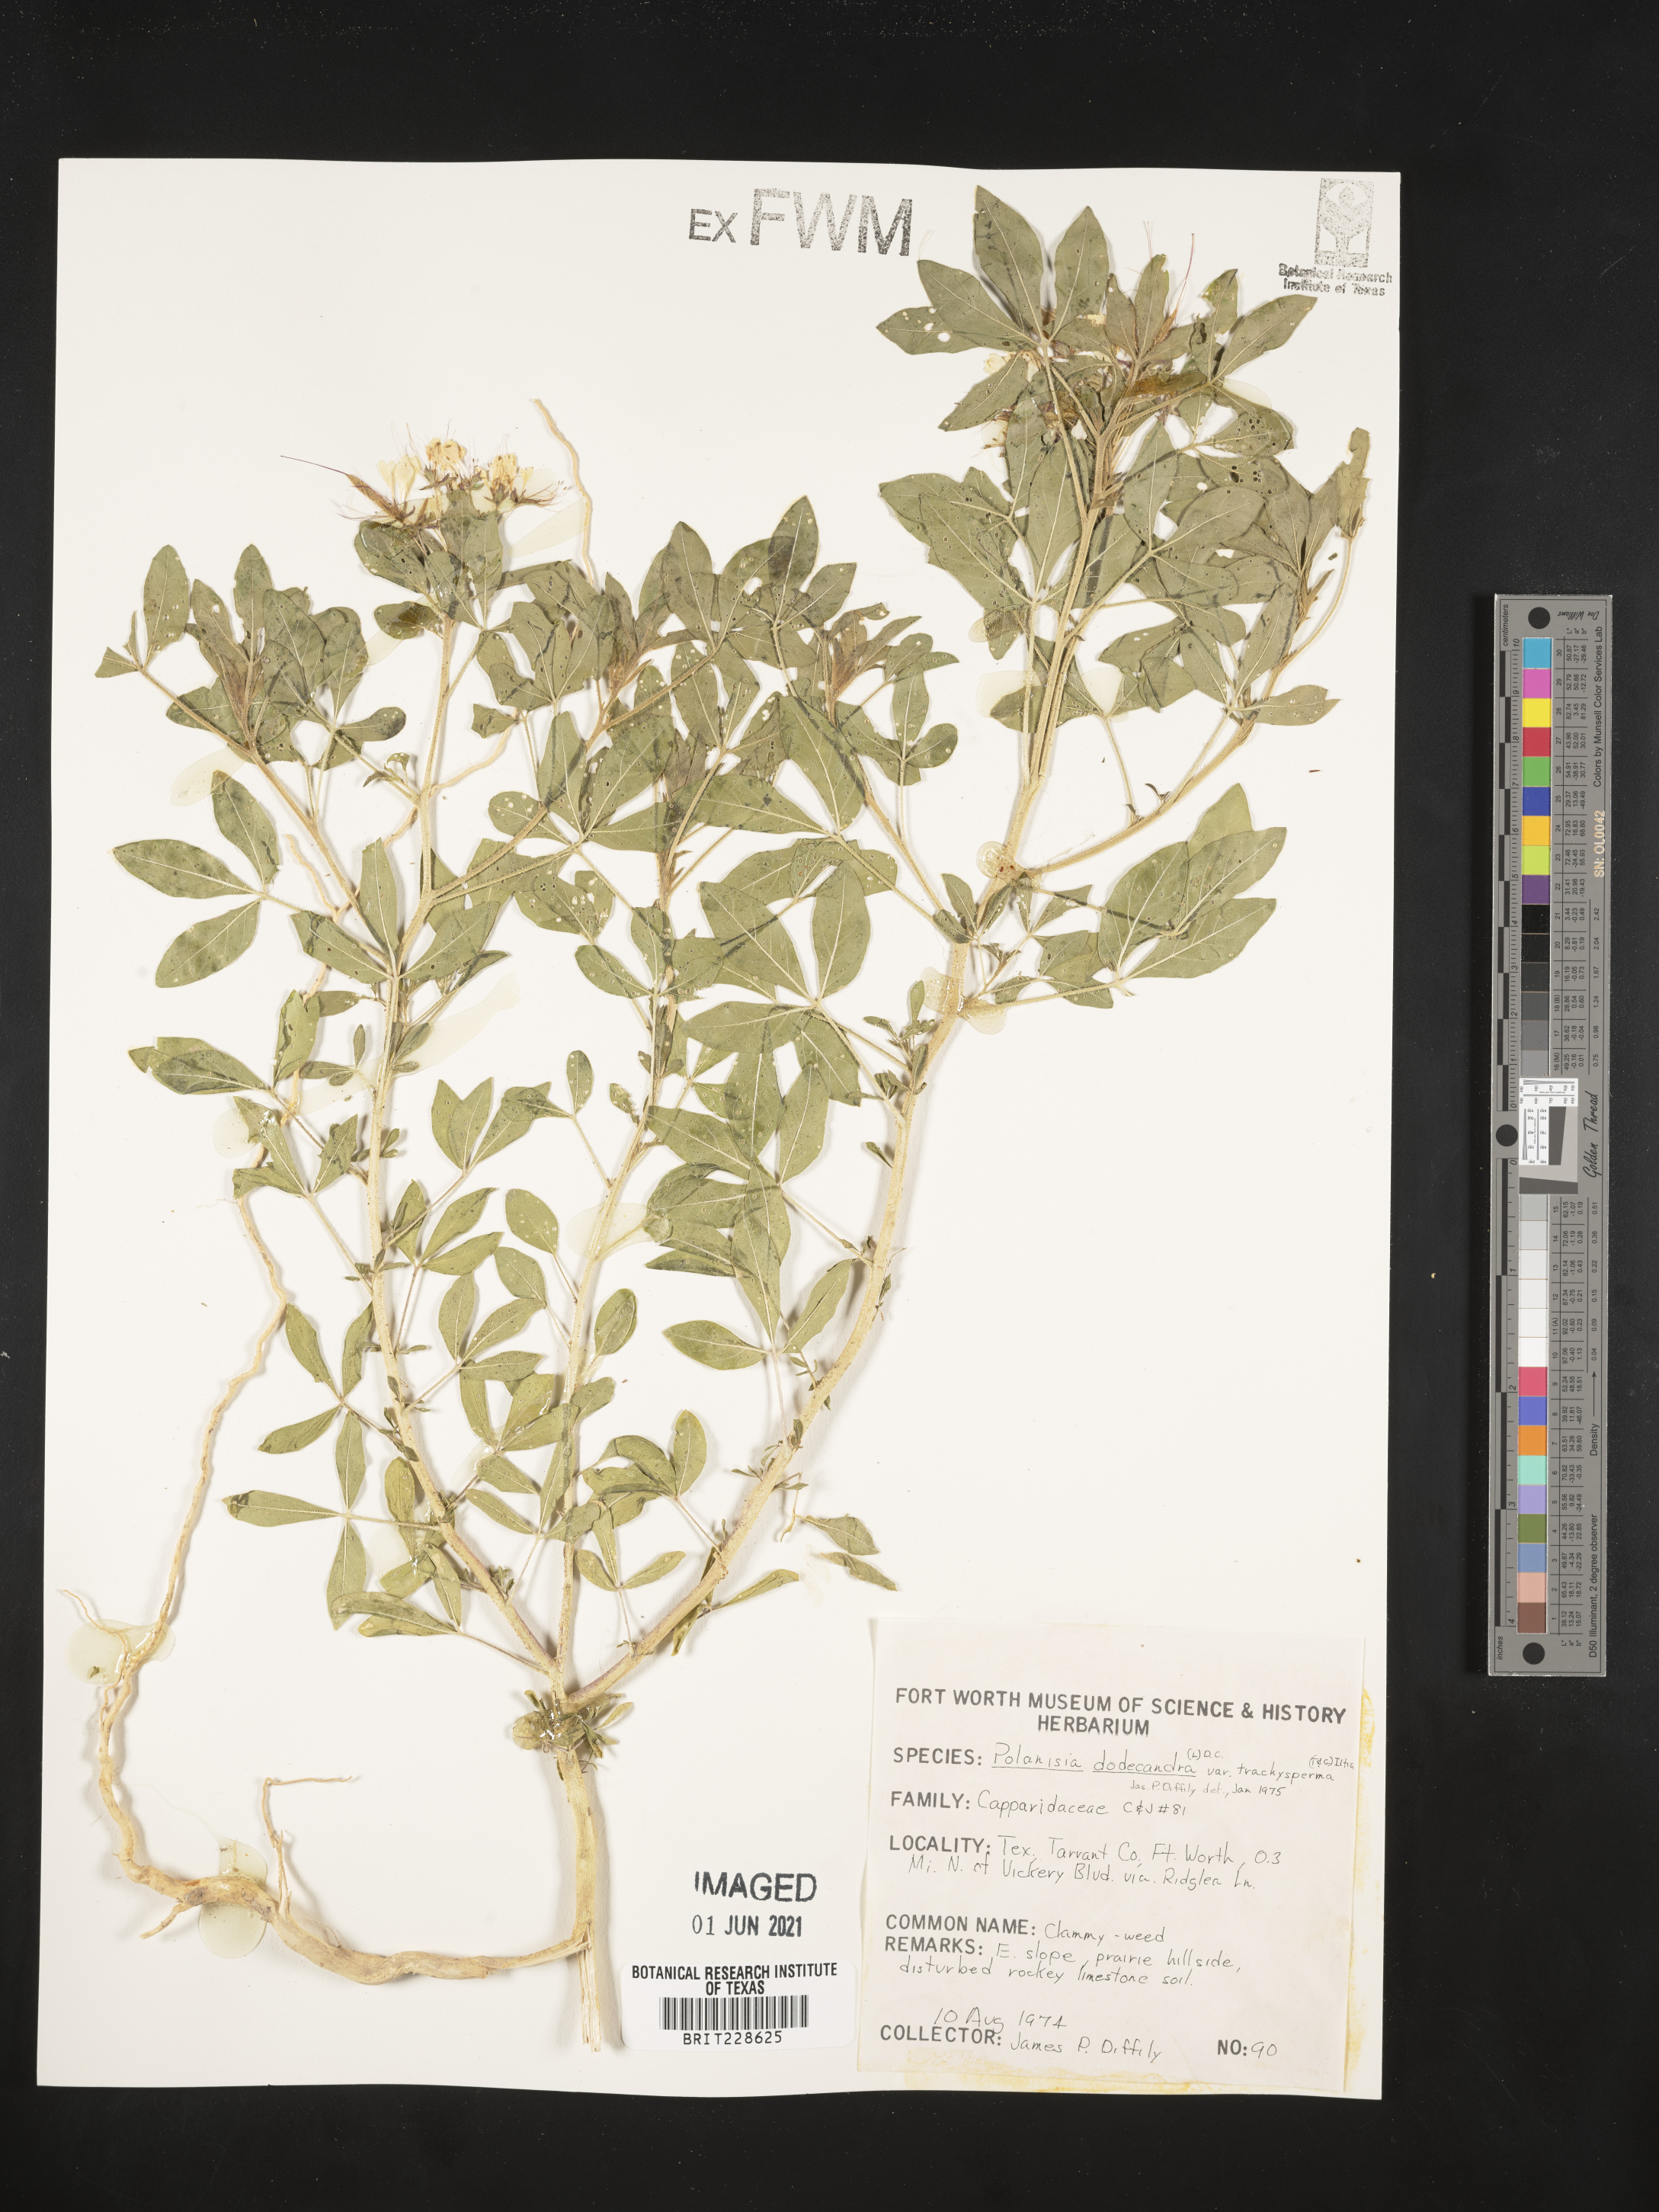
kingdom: Plantae
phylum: Tracheophyta
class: Magnoliopsida
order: Brassicales
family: Cleomaceae
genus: Polanisia
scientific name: Polanisia trachysperma
